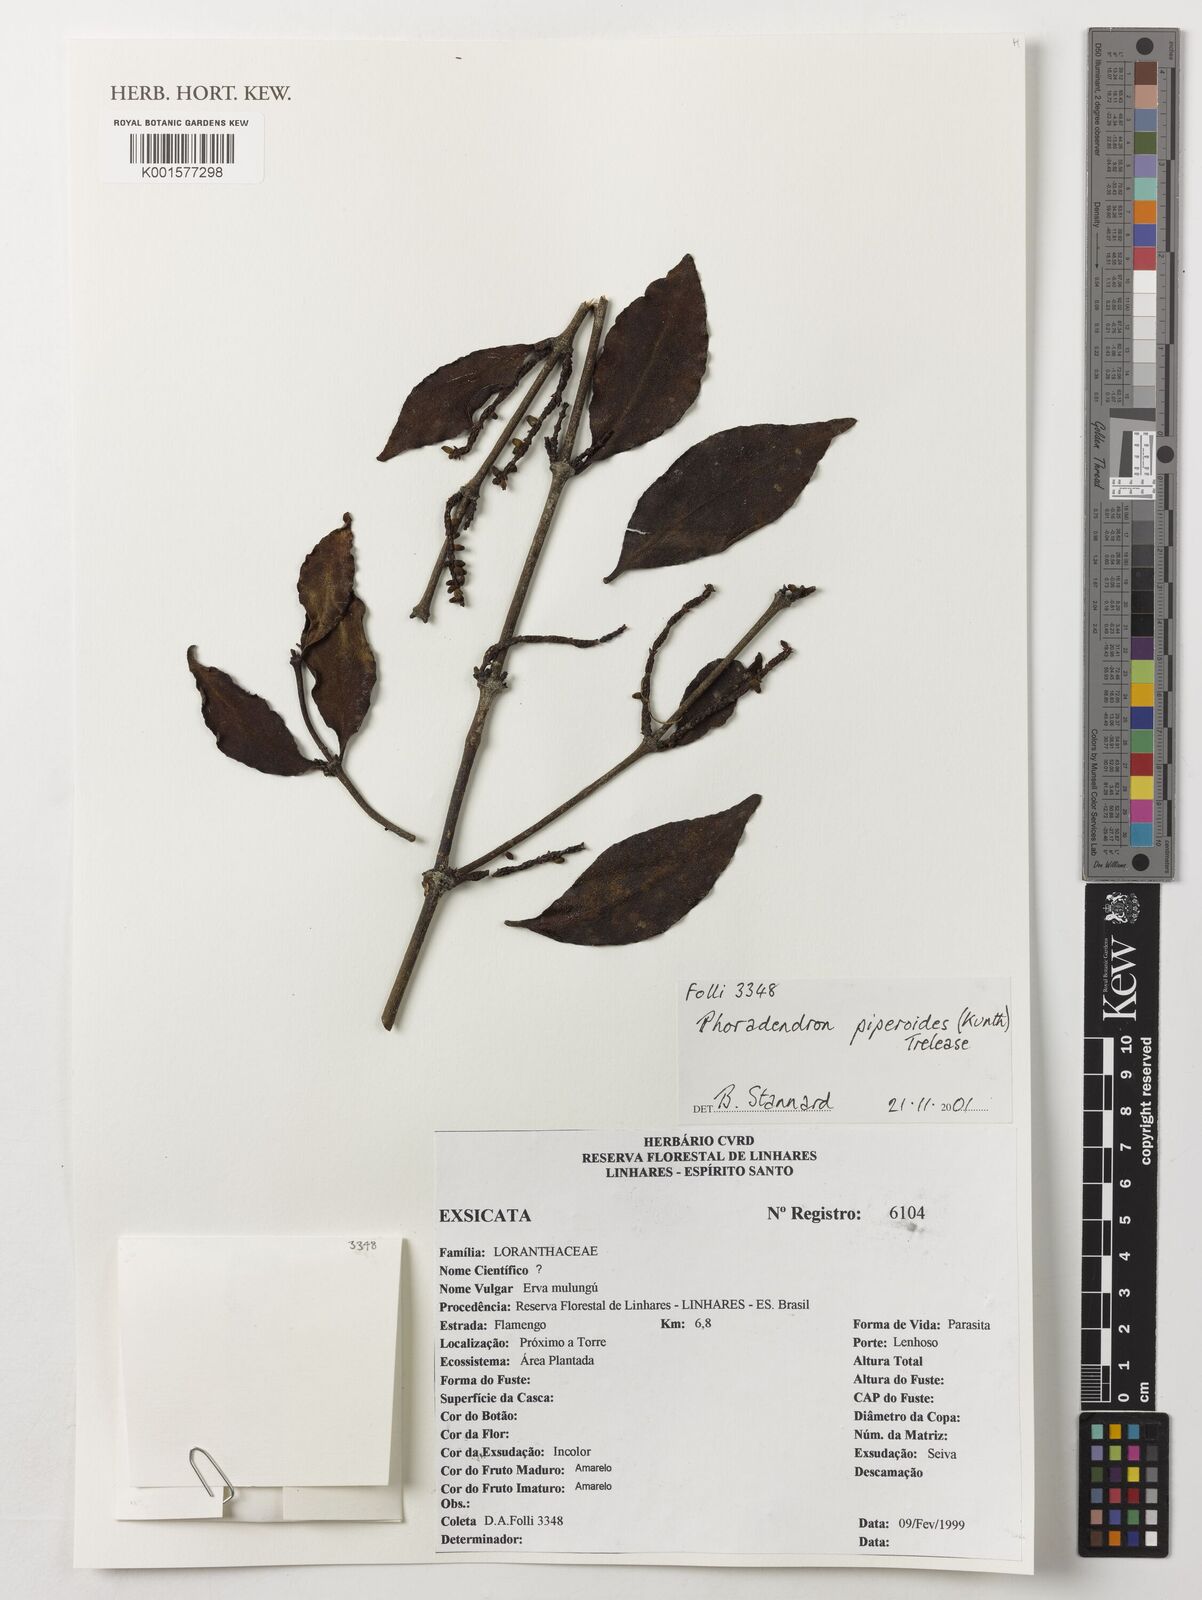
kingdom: Plantae
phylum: Tracheophyta
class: Magnoliopsida
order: Santalales
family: Viscaceae
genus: Phoradendron
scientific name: Phoradendron piperoides
